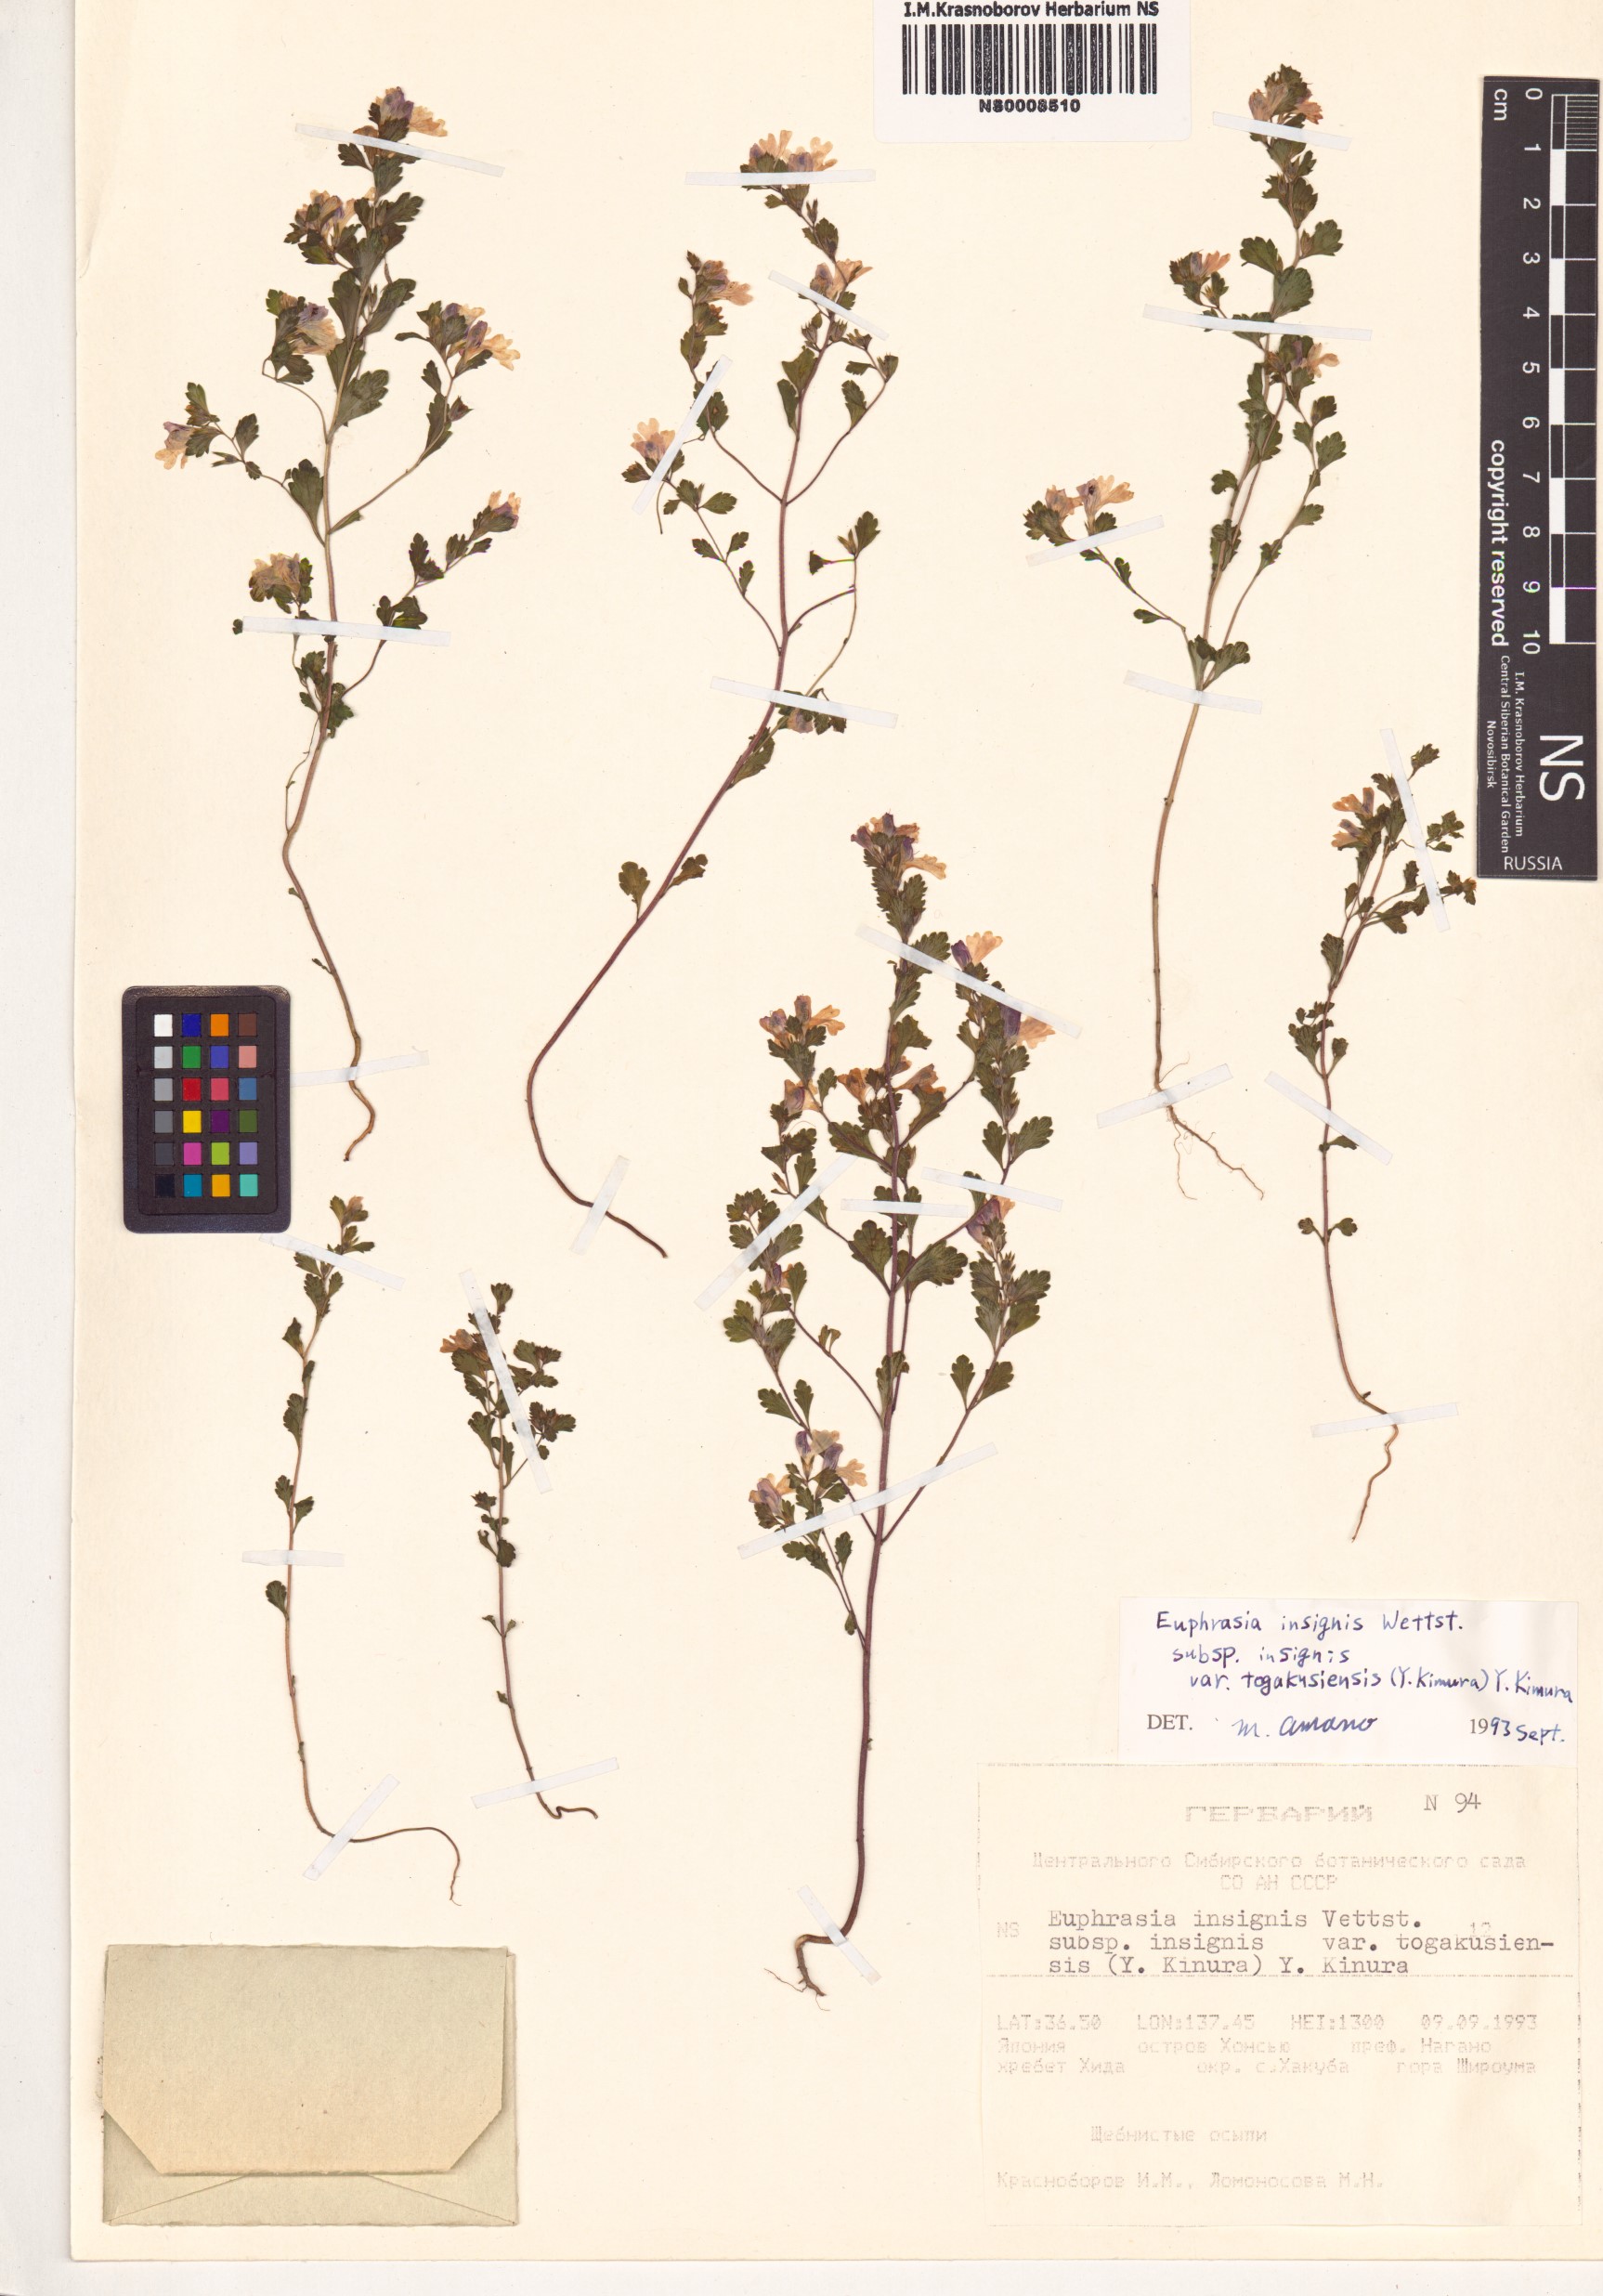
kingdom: Plantae
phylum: Tracheophyta
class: Magnoliopsida
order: Lamiales
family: Orobanchaceae
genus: Euphrasia
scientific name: Euphrasia insignis
